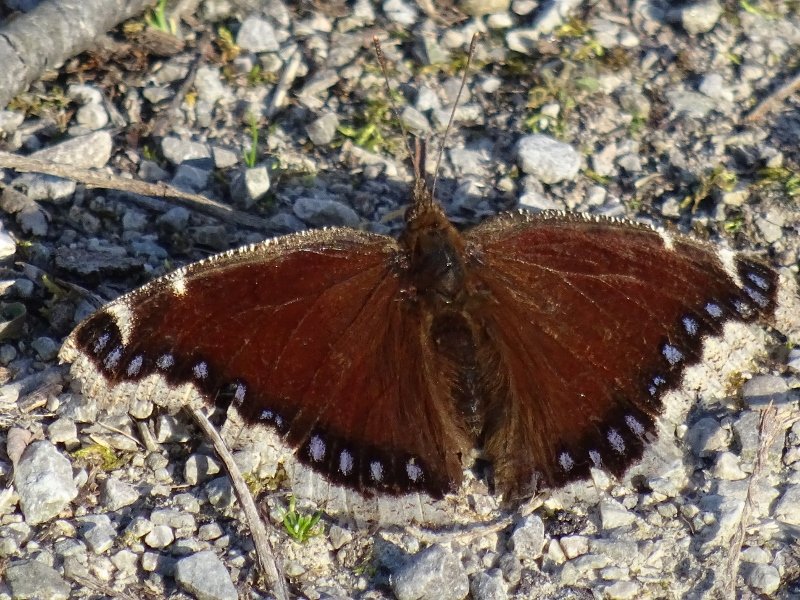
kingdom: Animalia
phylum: Arthropoda
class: Insecta
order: Lepidoptera
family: Nymphalidae
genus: Nymphalis
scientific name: Nymphalis antiopa
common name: Mourning Cloak
